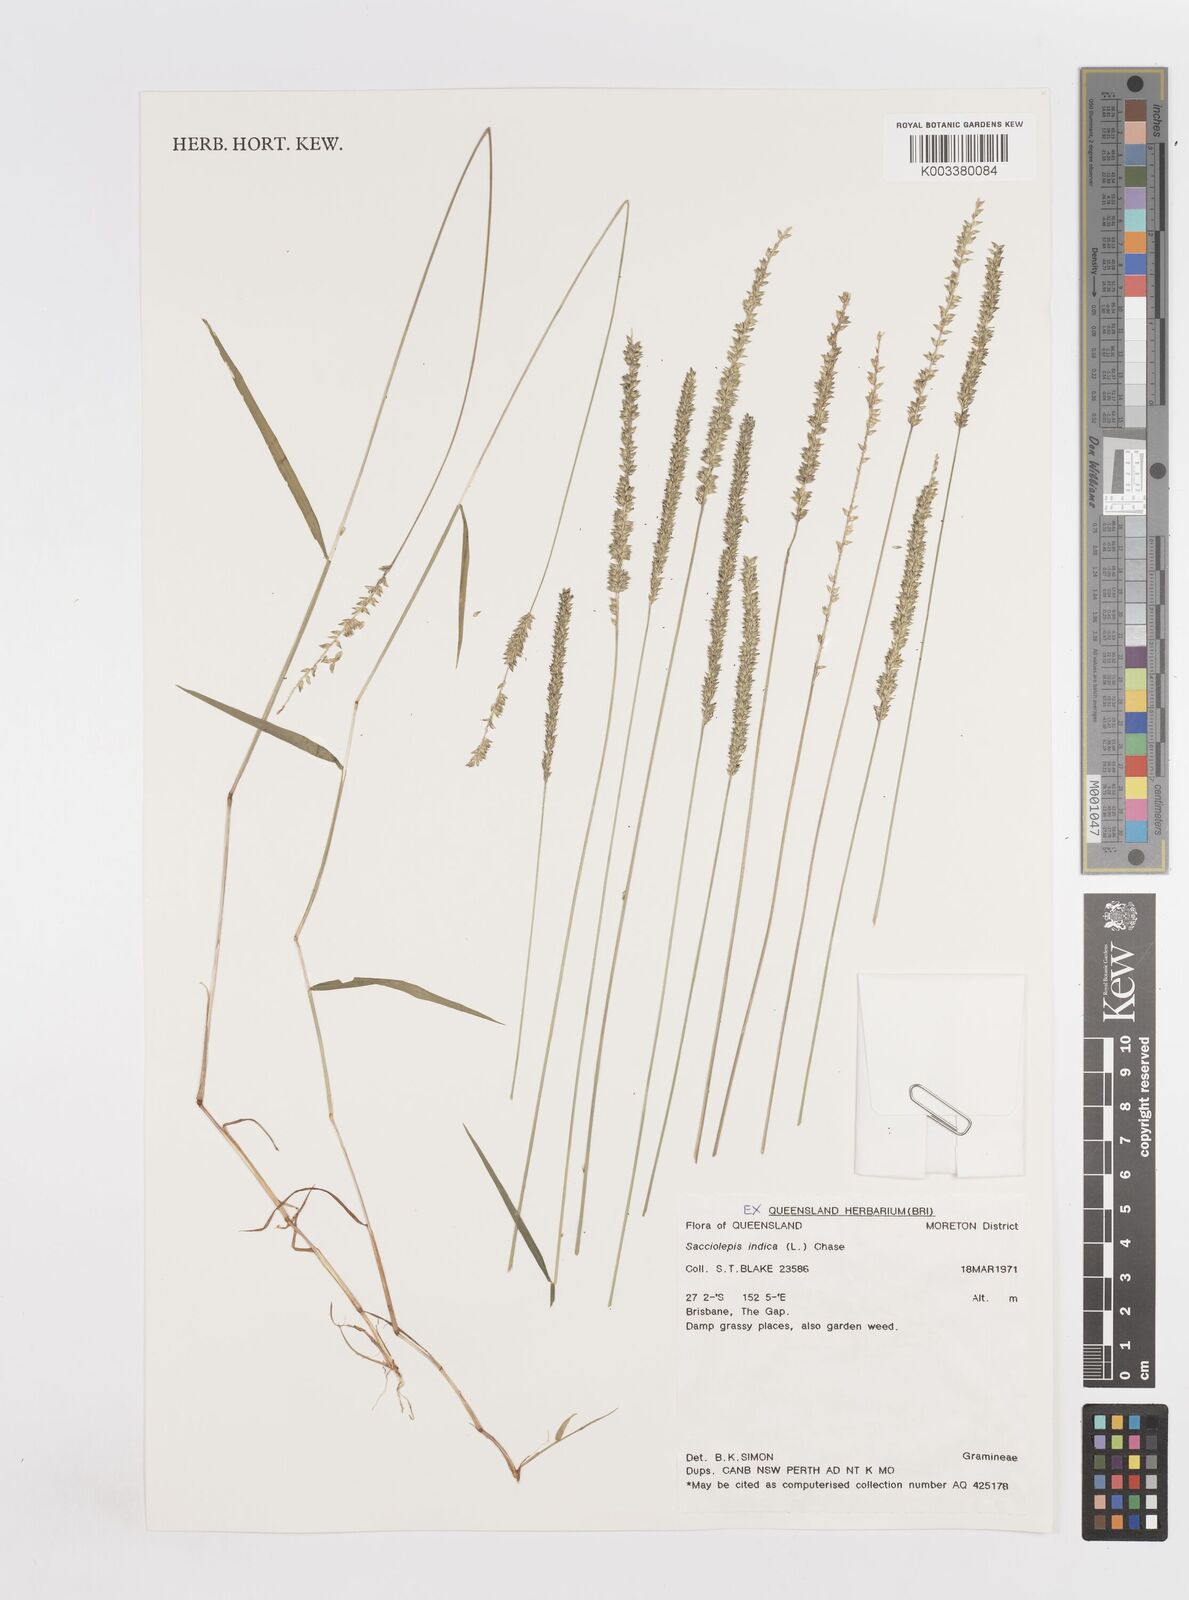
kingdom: Plantae
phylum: Tracheophyta
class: Liliopsida
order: Poales
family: Poaceae
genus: Sacciolepis
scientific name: Sacciolepis indica
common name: Glenwoodgrass
